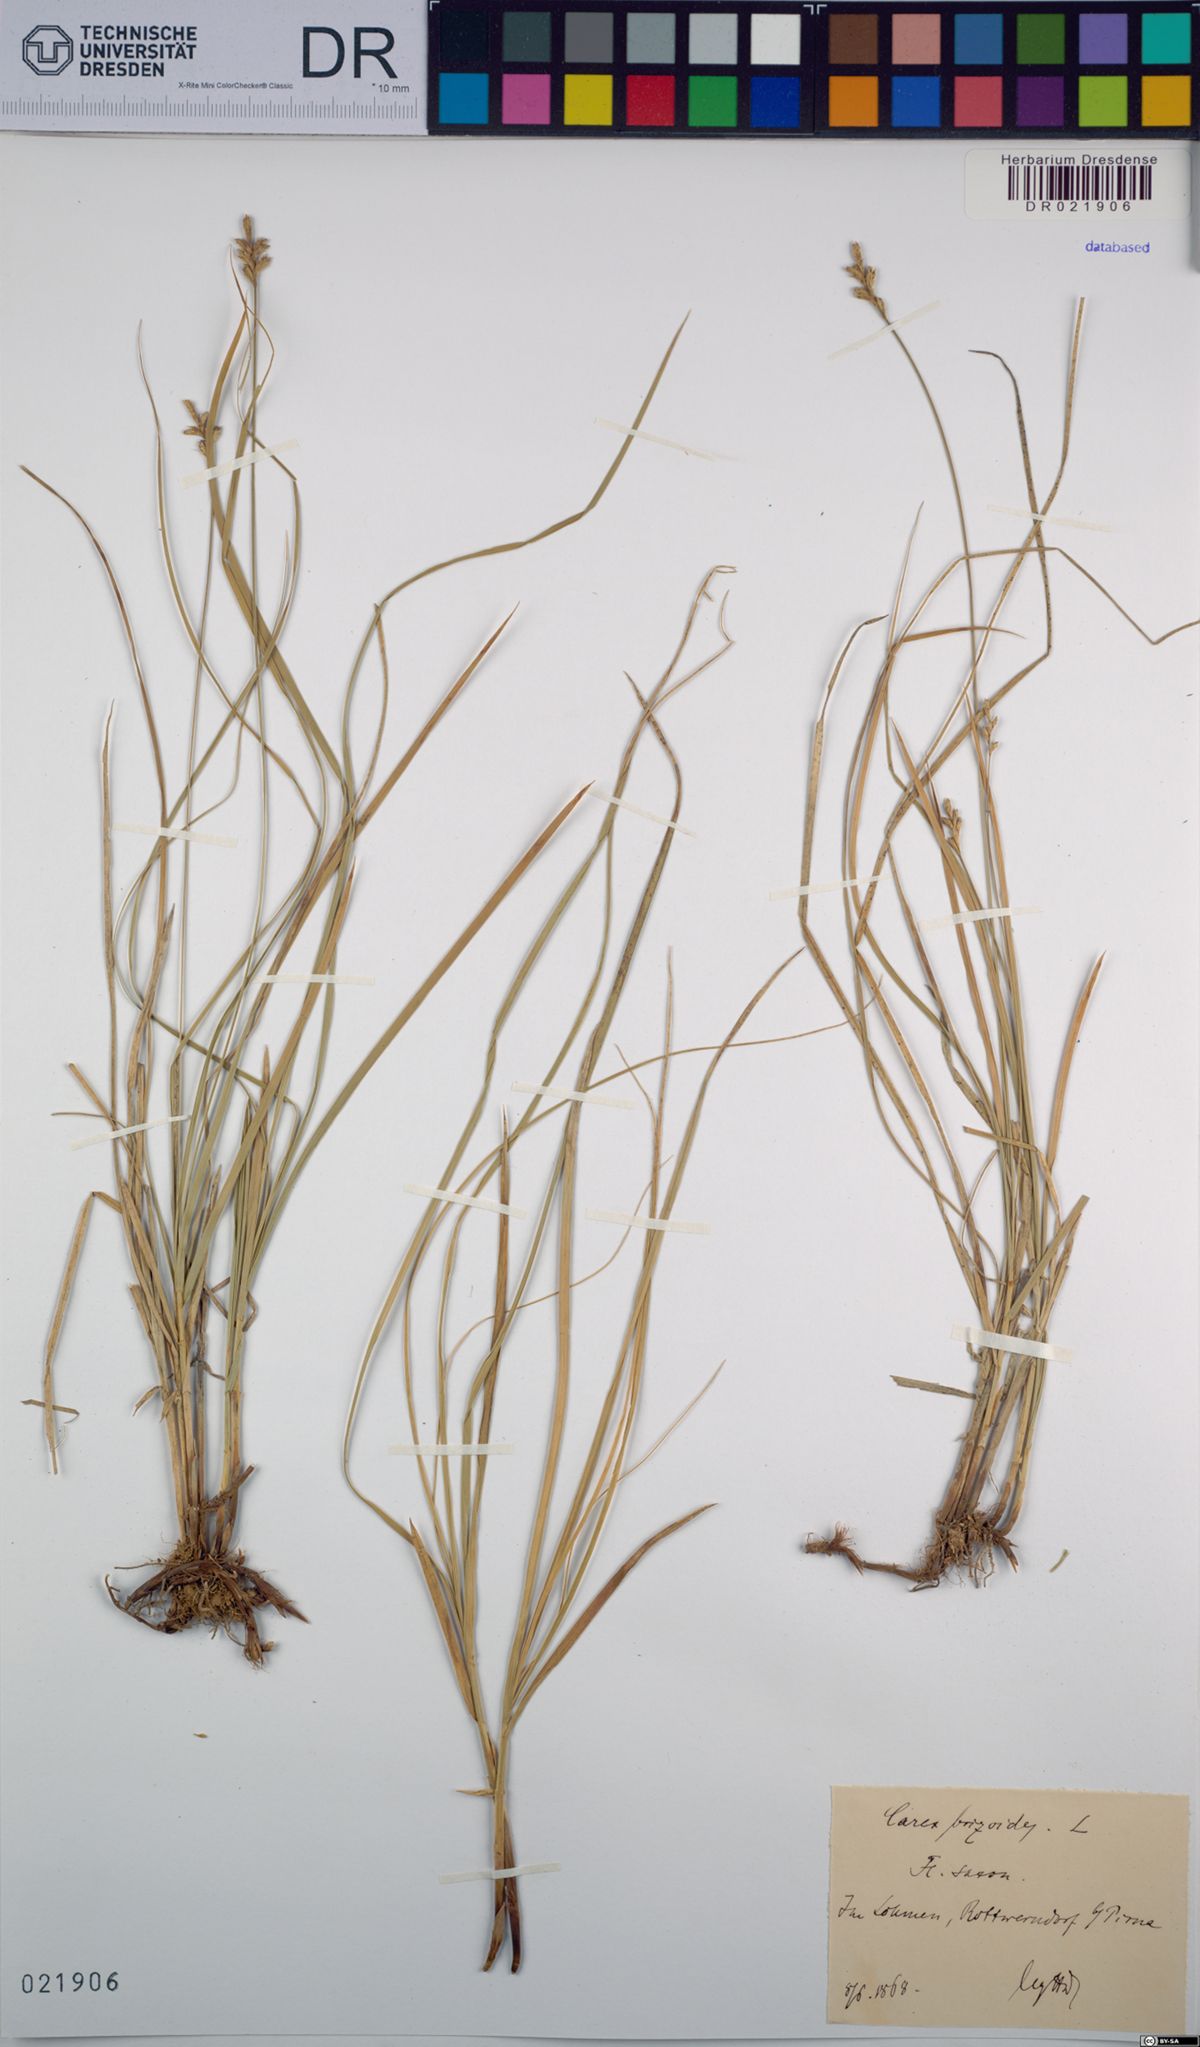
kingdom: Plantae
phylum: Tracheophyta
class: Liliopsida
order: Poales
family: Cyperaceae
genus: Carex
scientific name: Carex brizoides
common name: Quaking-grass sedge
